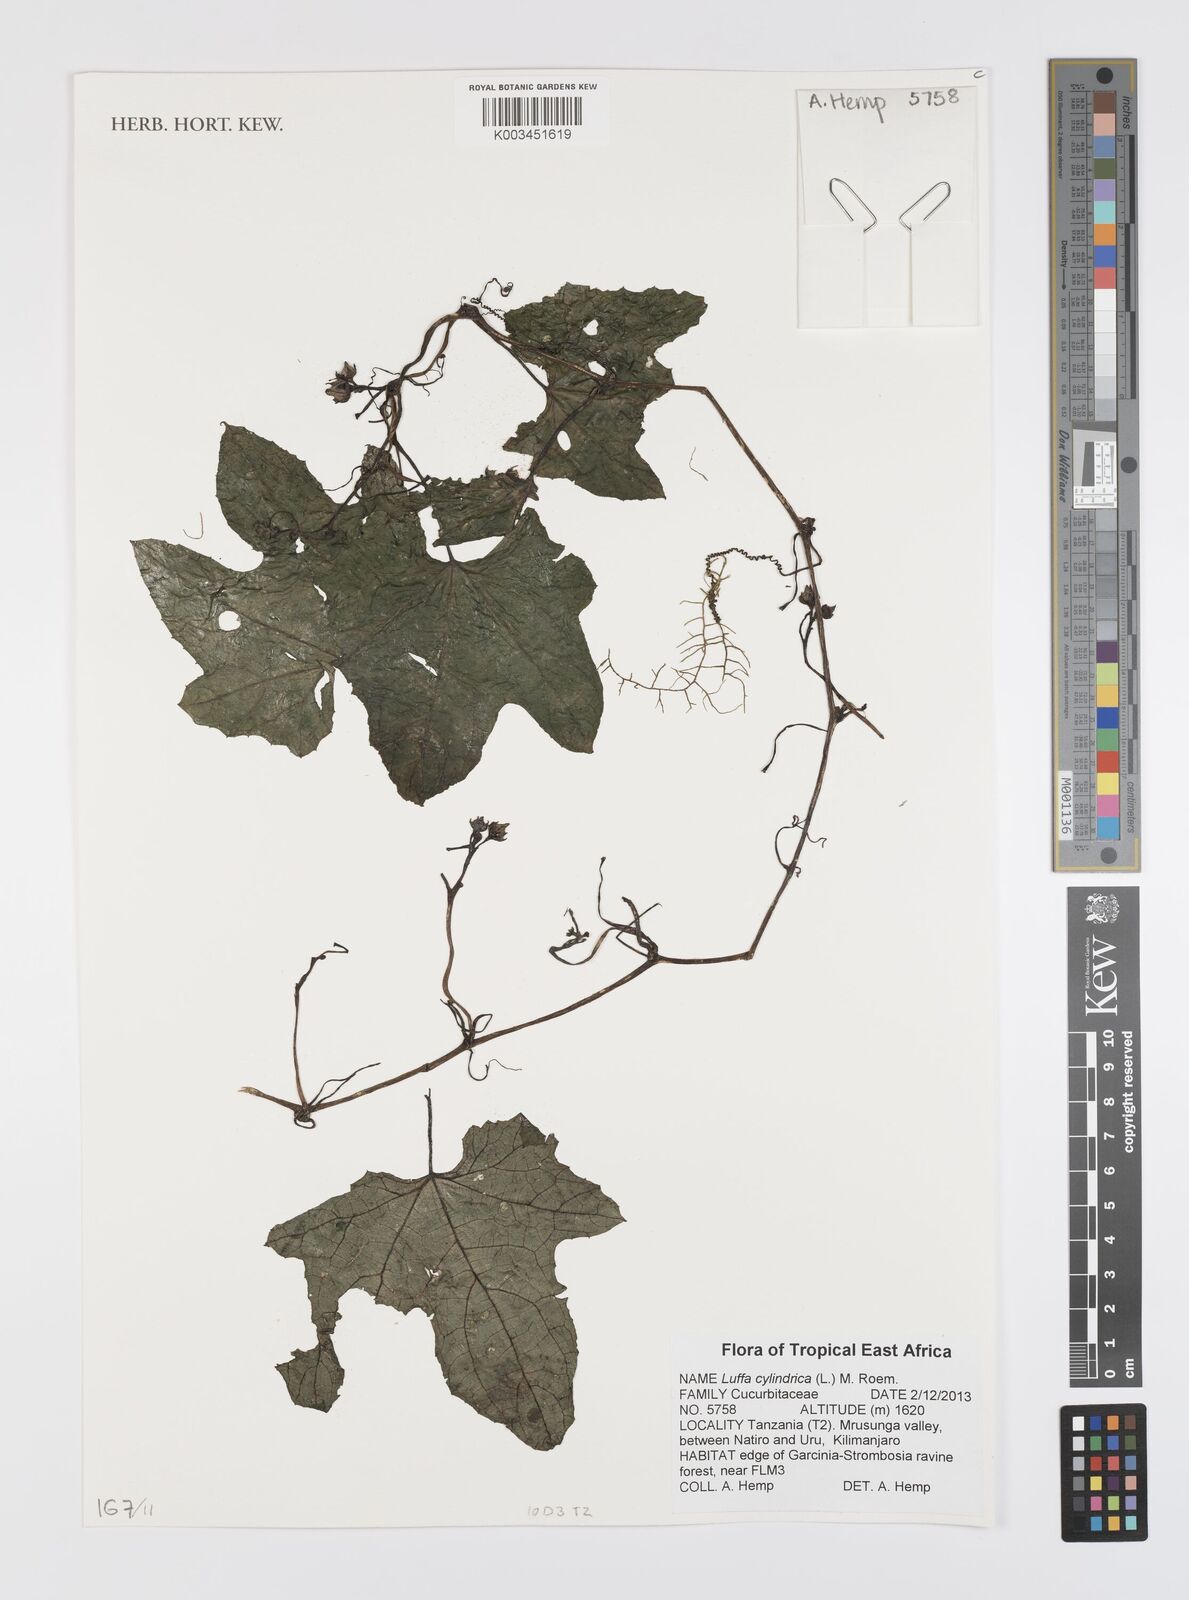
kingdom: Plantae
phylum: Tracheophyta
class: Magnoliopsida
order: Cucurbitales
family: Cucurbitaceae
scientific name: Cucurbitaceae
